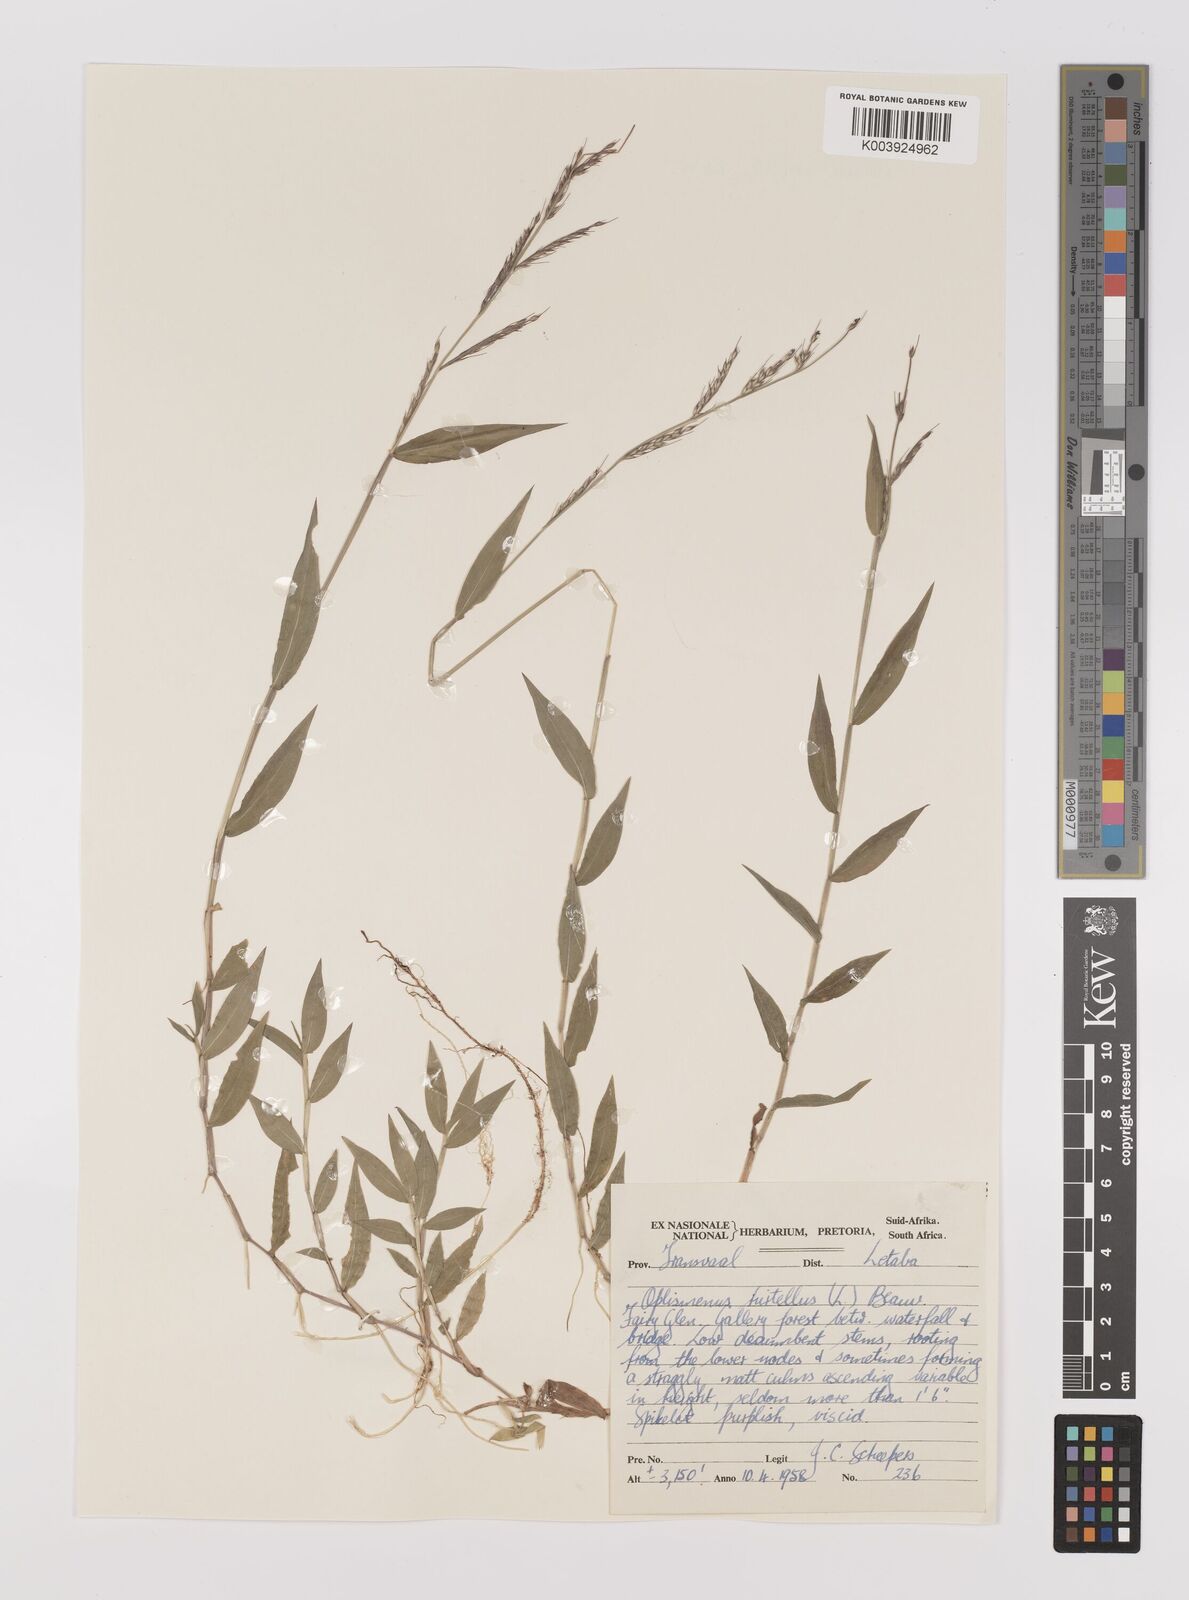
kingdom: Plantae
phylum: Tracheophyta
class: Liliopsida
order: Poales
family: Poaceae
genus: Oplismenus
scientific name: Oplismenus hirtellus
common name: Basketgrass
